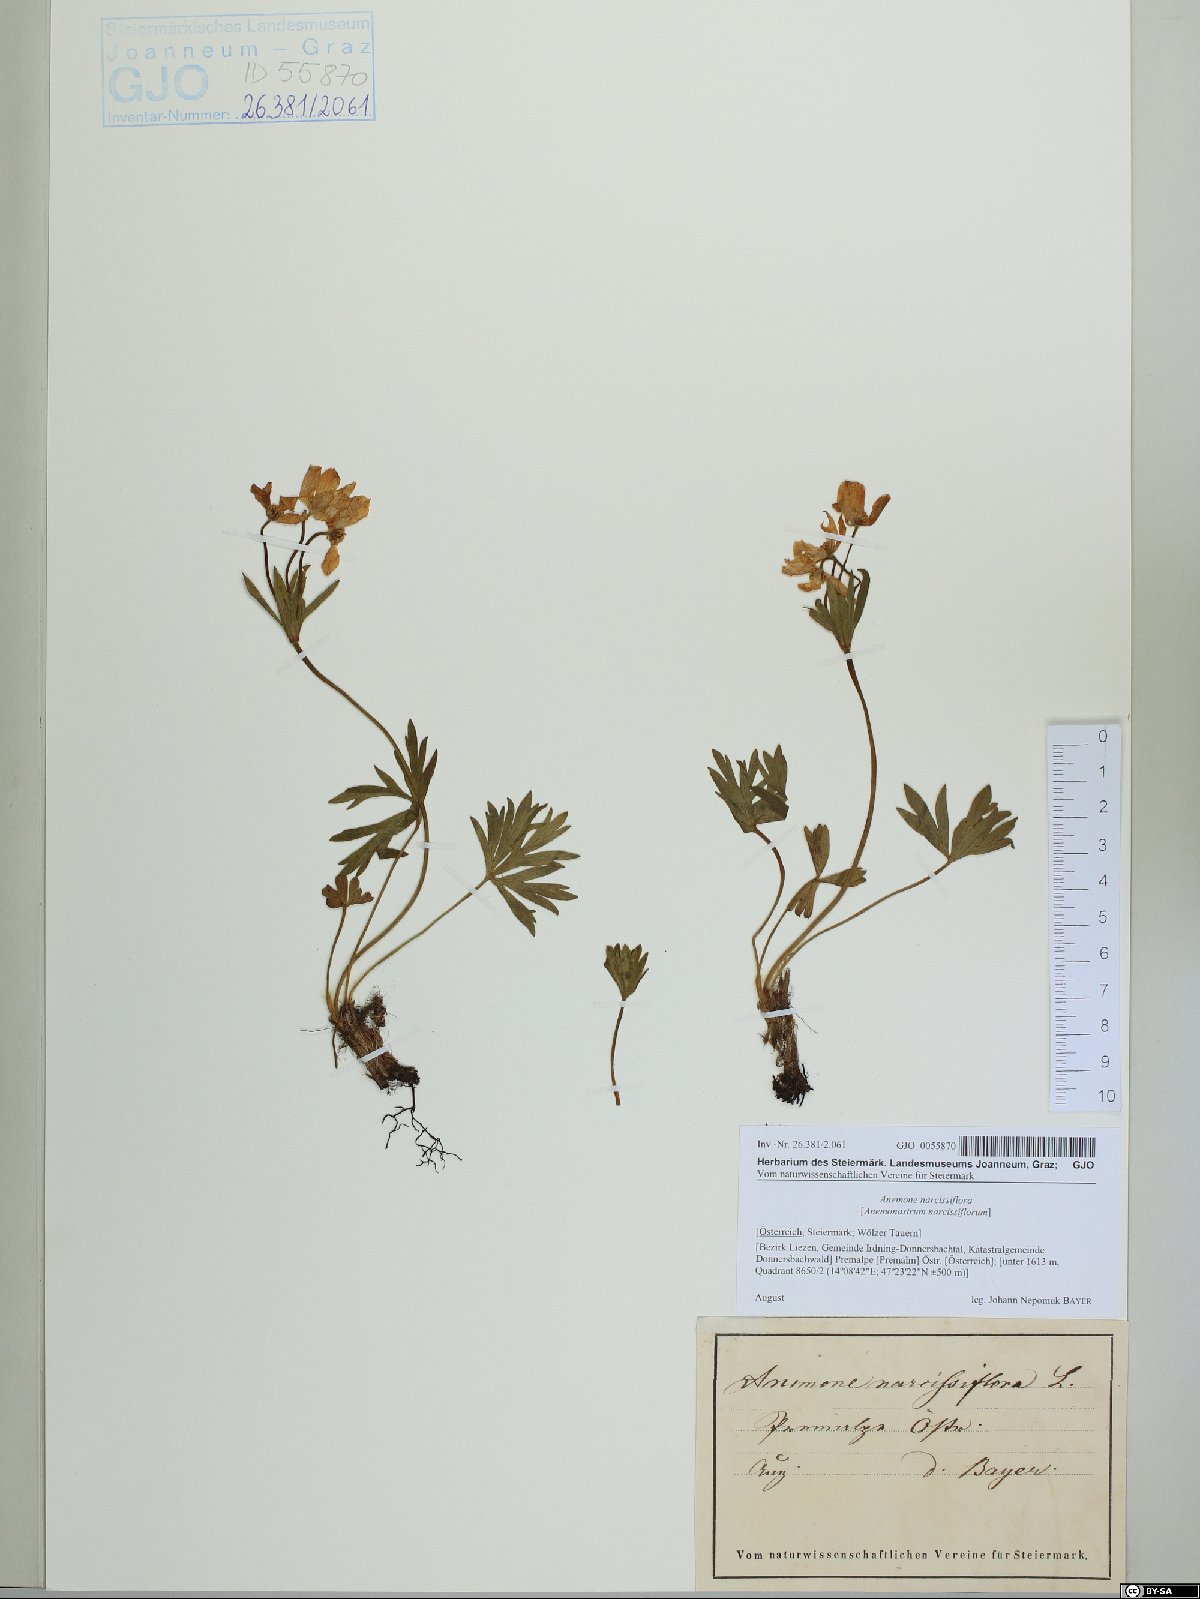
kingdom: Plantae
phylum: Tracheophyta
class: Magnoliopsida
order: Ranunculales
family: Ranunculaceae
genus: Anemonastrum
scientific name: Anemonastrum narcissiflorum
